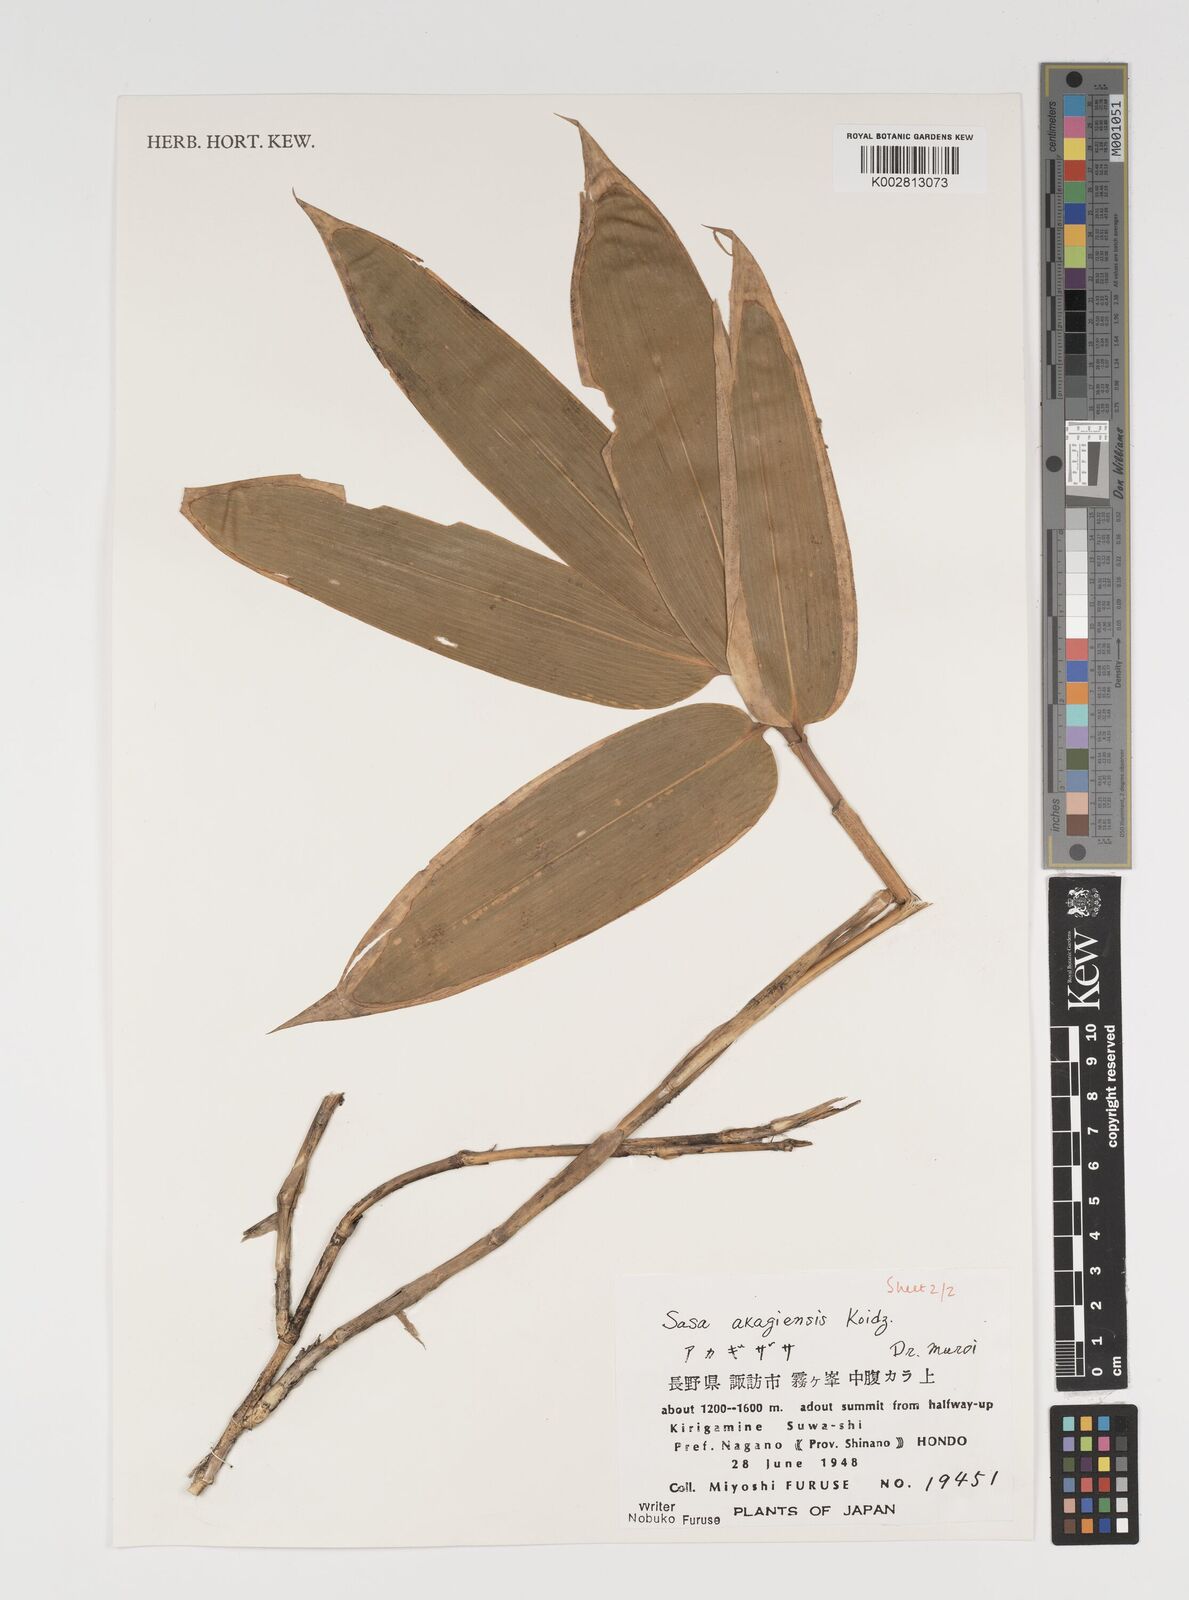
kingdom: Plantae
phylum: Tracheophyta
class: Liliopsida
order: Poales
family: Poaceae
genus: Sasa
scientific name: Sasa kurilensis
